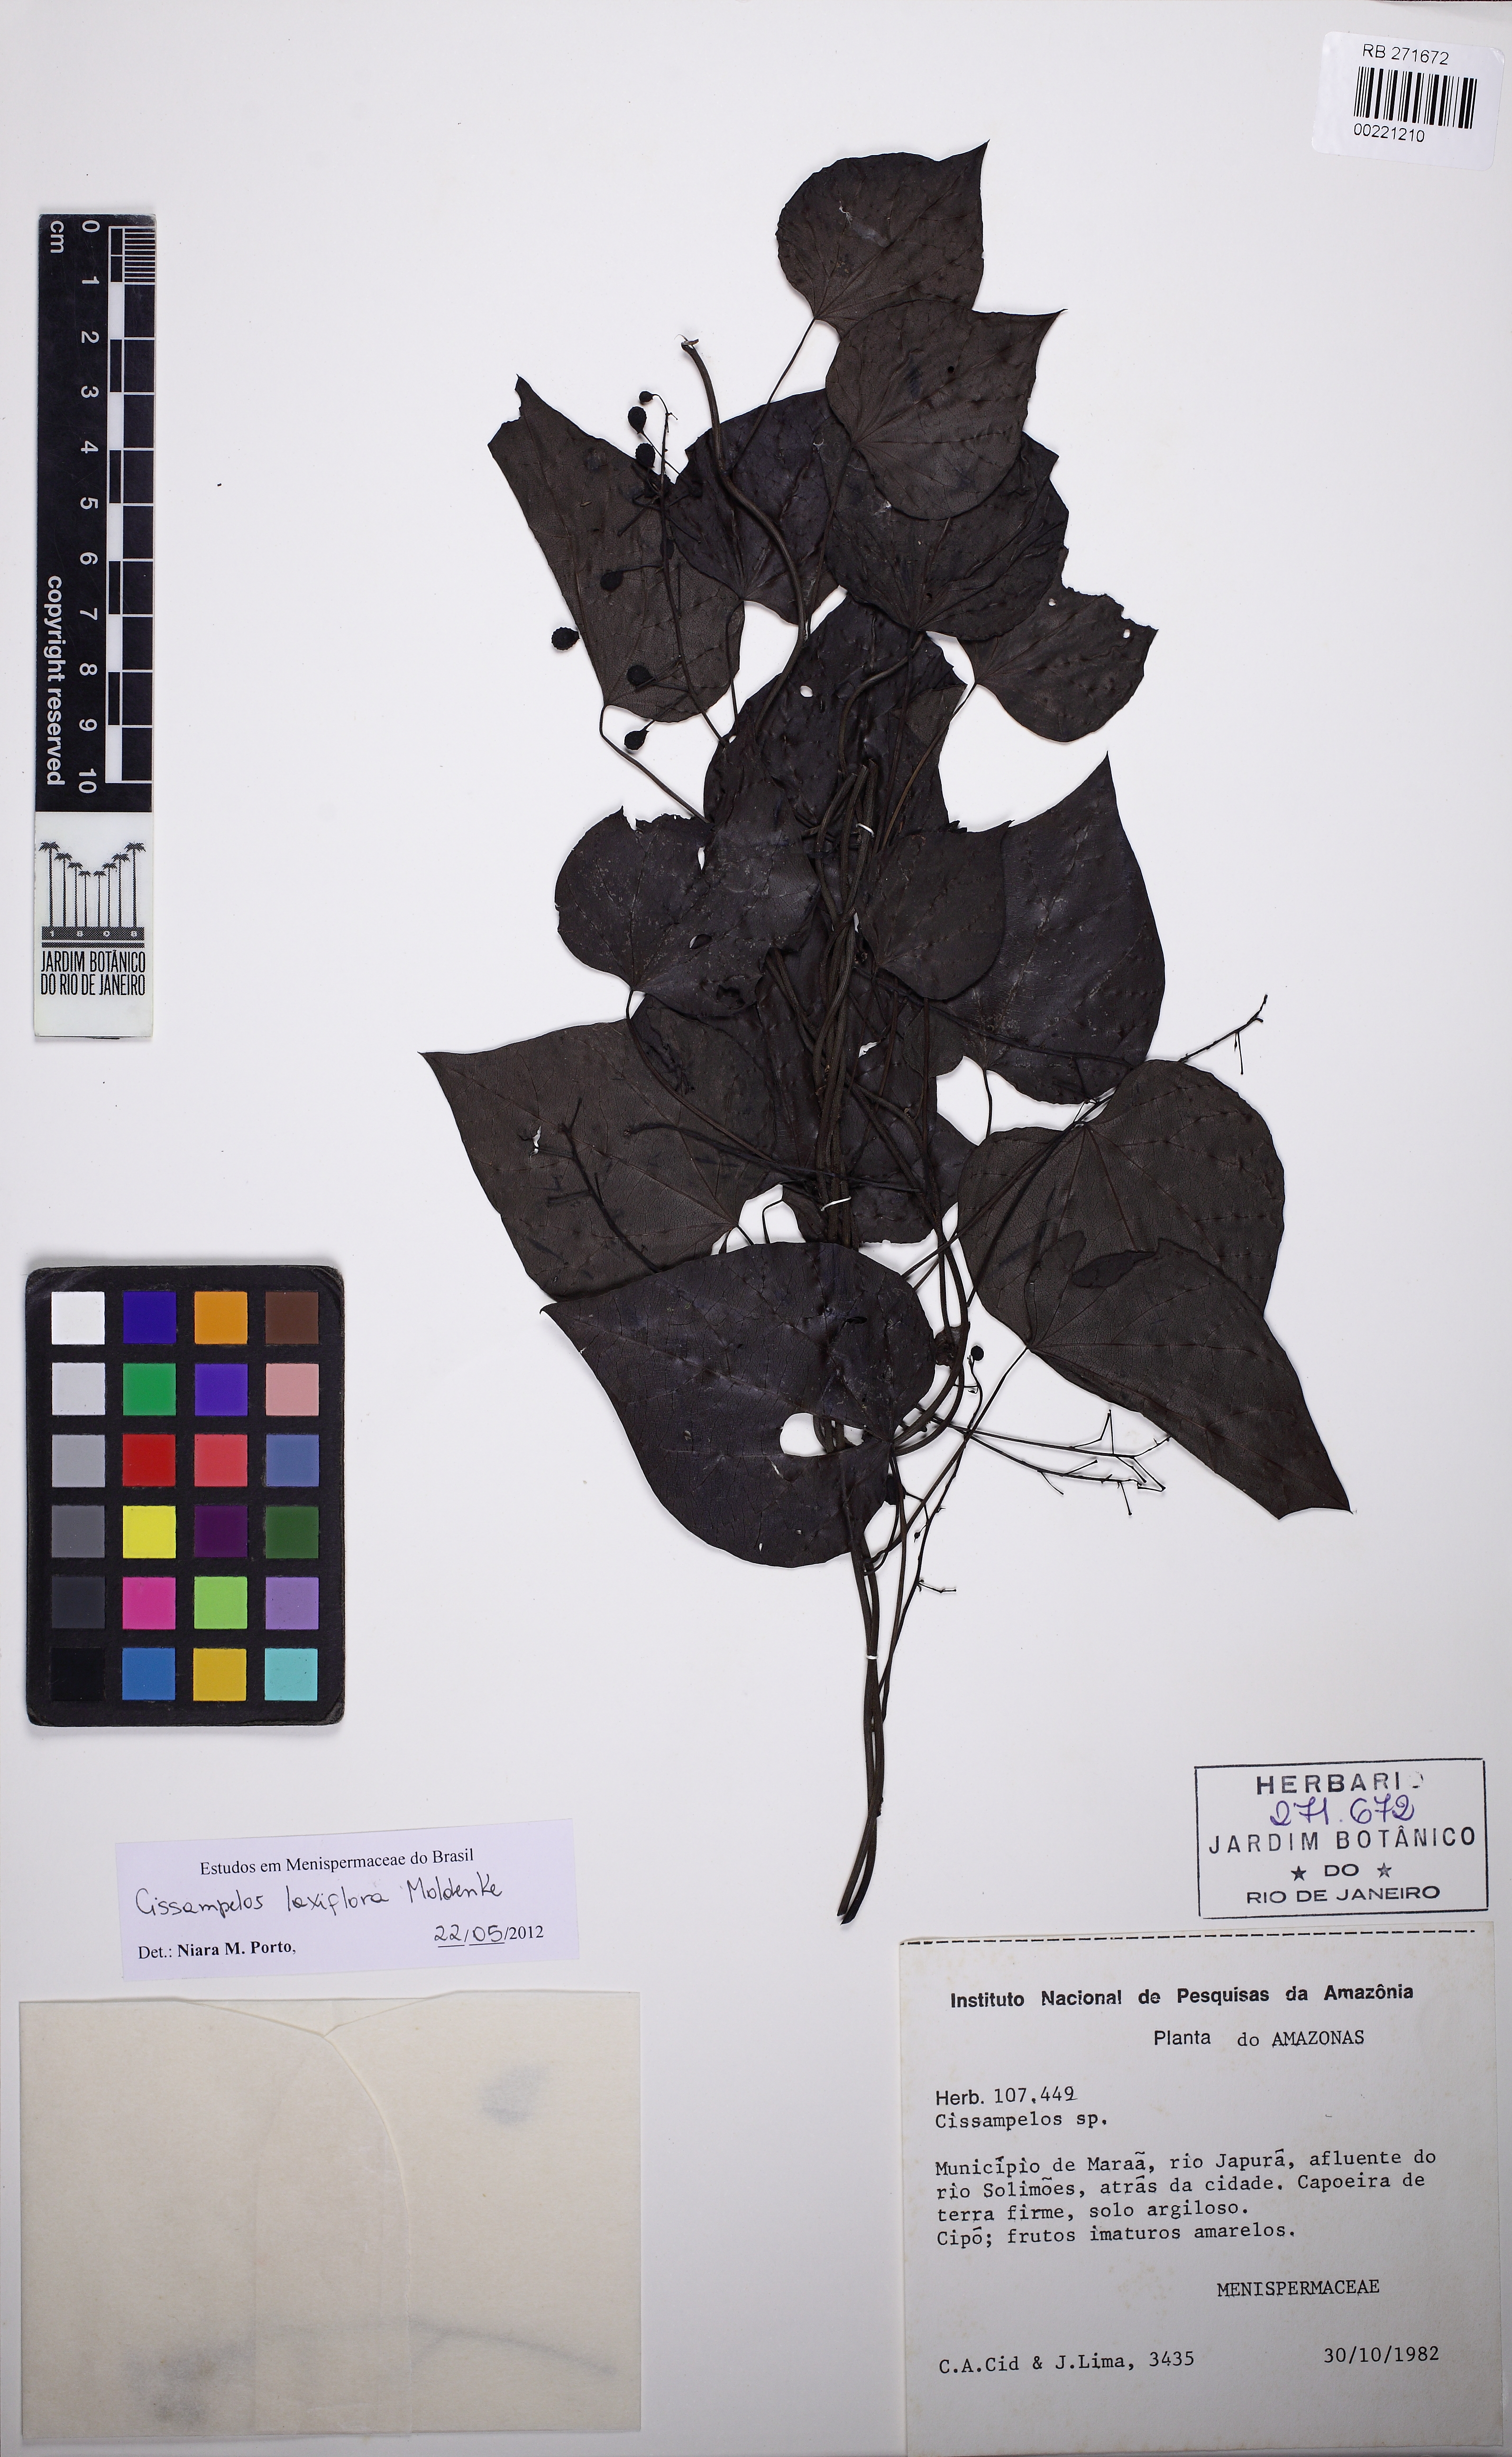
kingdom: Plantae
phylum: Tracheophyta
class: Magnoliopsida
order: Ranunculales
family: Menispermaceae
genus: Cissampelos
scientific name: Cissampelos laxiflora
